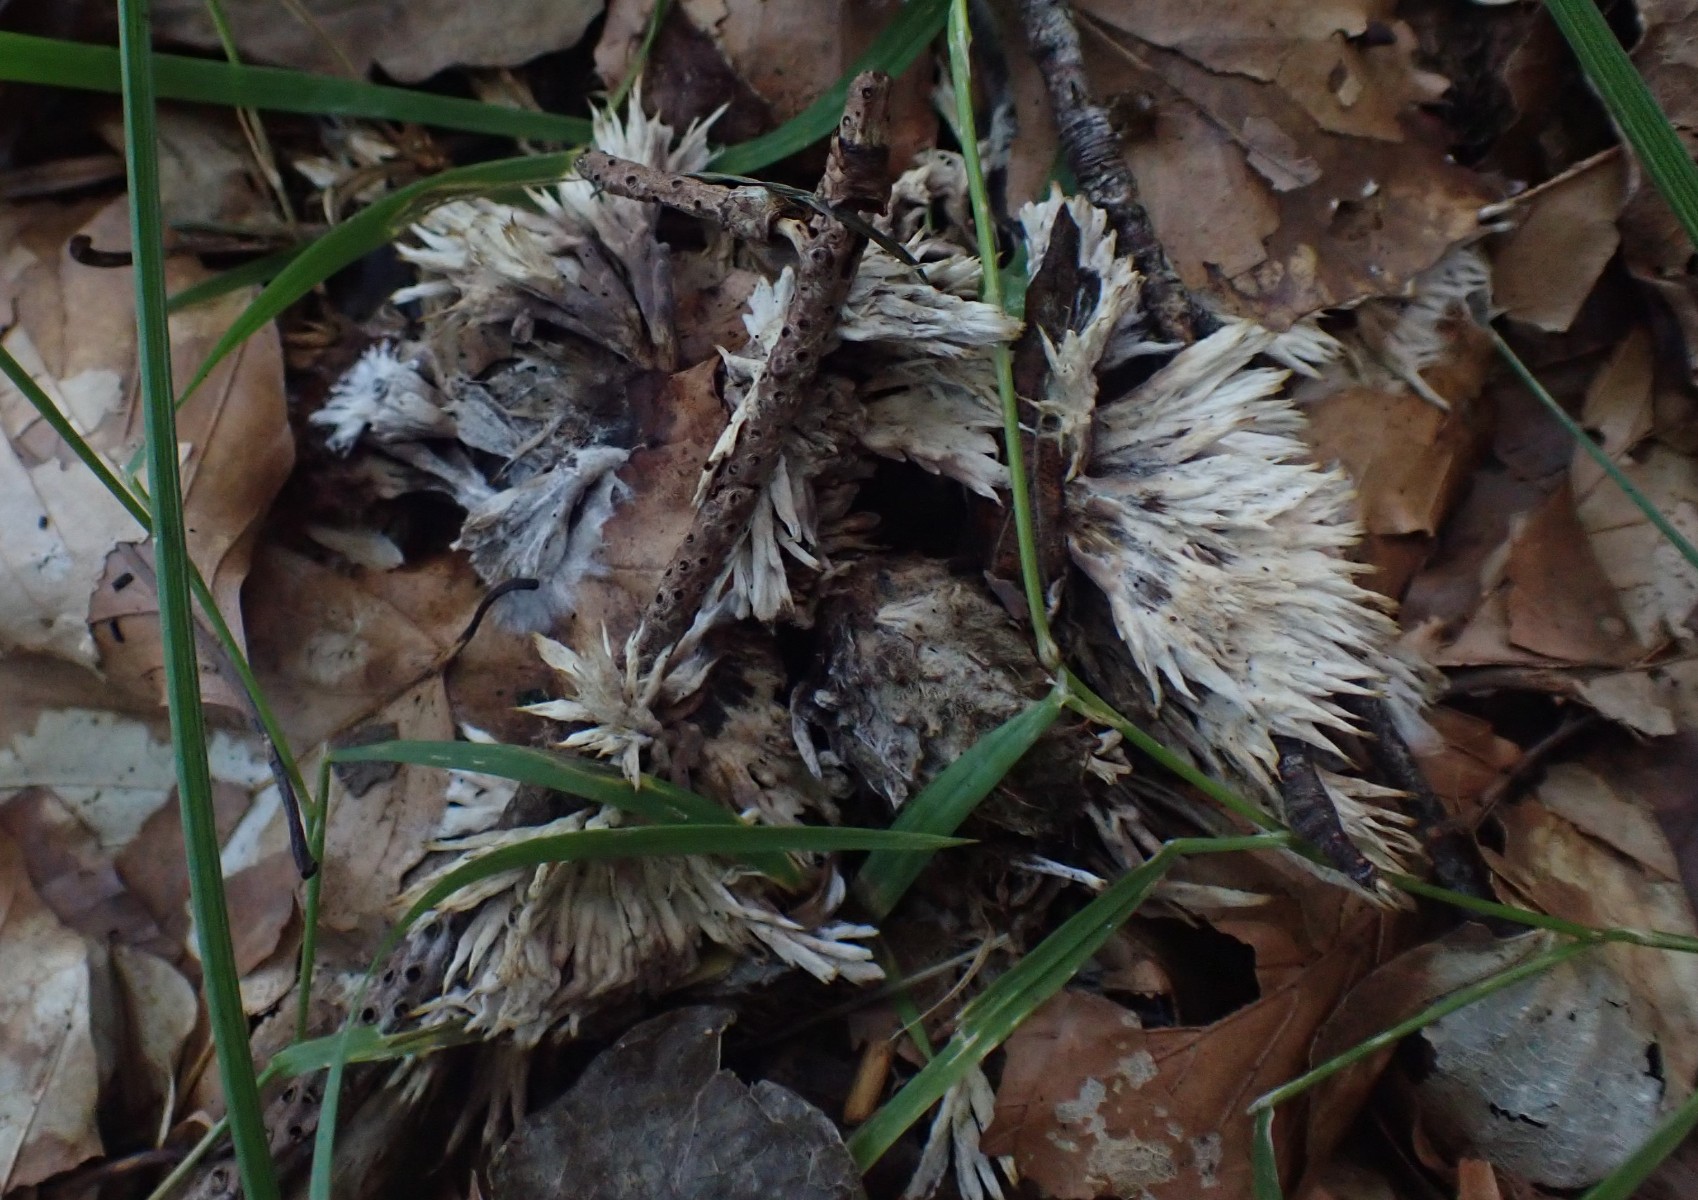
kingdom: Fungi
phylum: Basidiomycota
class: Agaricomycetes
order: Thelephorales
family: Thelephoraceae
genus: Thelephora
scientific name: Thelephora penicillata
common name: fladtrådt frynsesvamp
